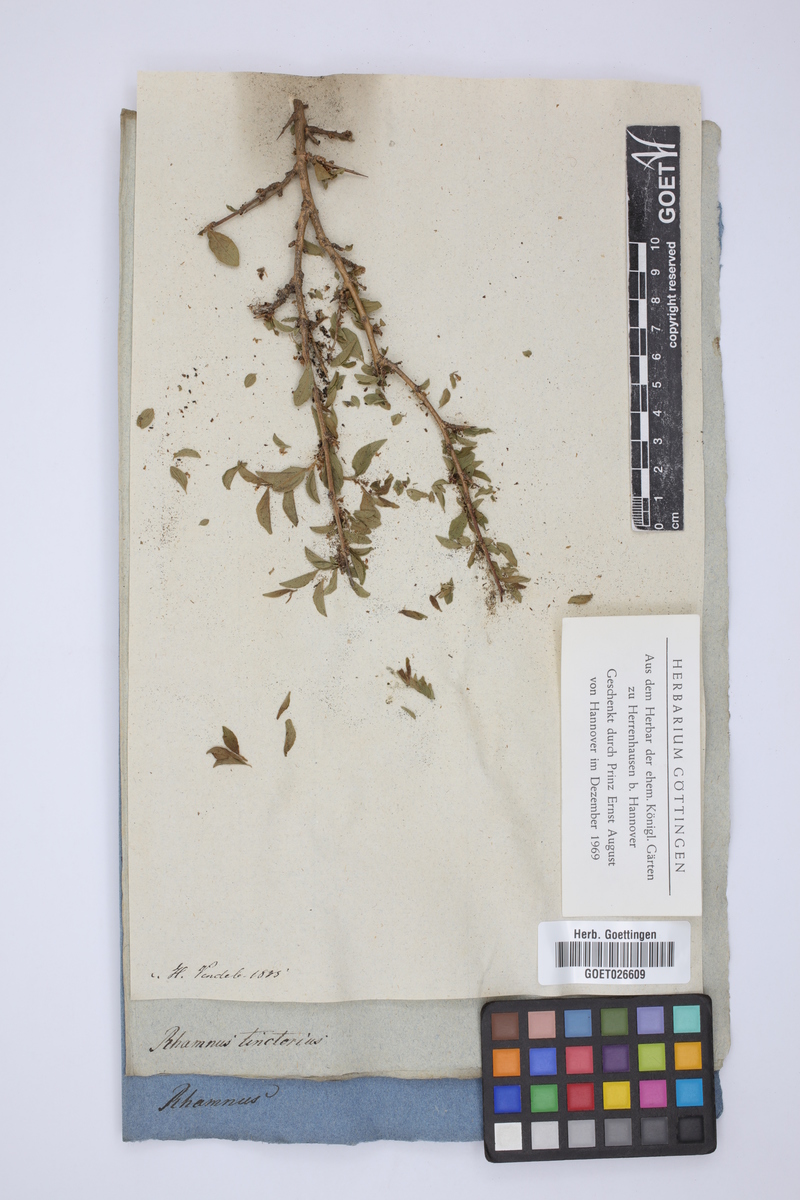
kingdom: Plantae
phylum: Tracheophyta
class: Magnoliopsida
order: Malpighiales
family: Phyllanthaceae
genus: Flueggea
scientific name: Flueggea tinctoria
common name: Tamujo
